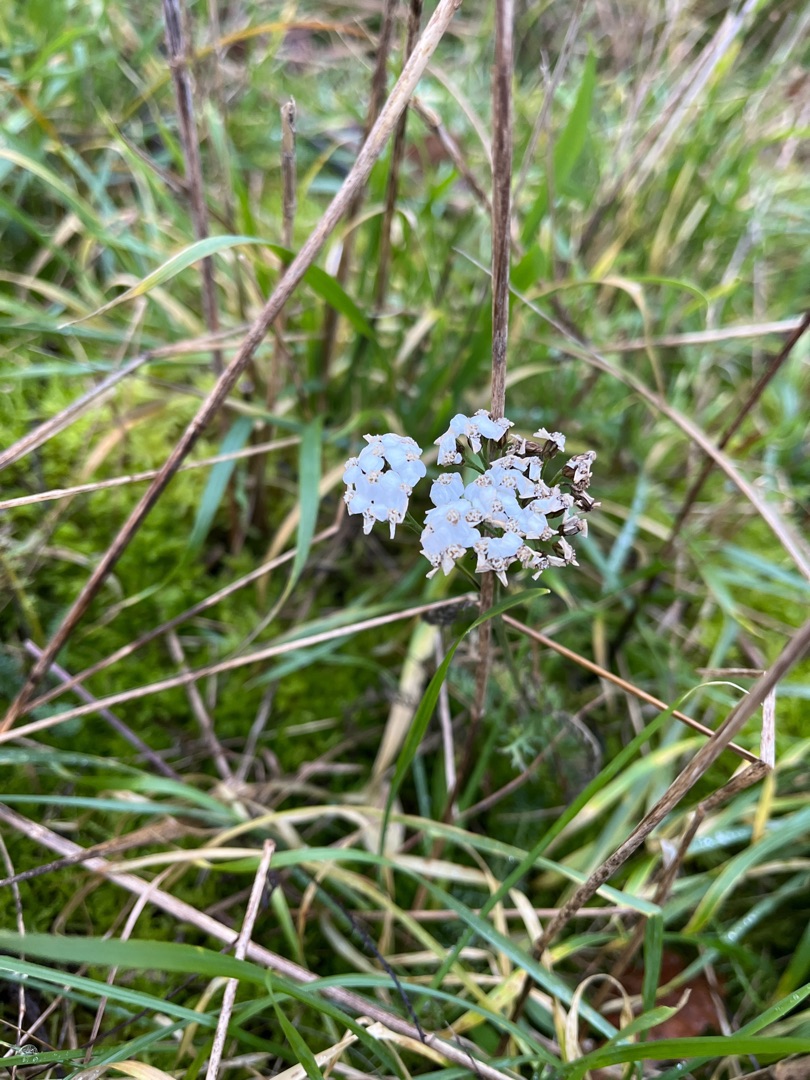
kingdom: Plantae
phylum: Tracheophyta
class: Magnoliopsida
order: Asterales
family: Asteraceae
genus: Achillea
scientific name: Achillea millefolium
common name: Almindelig røllike
